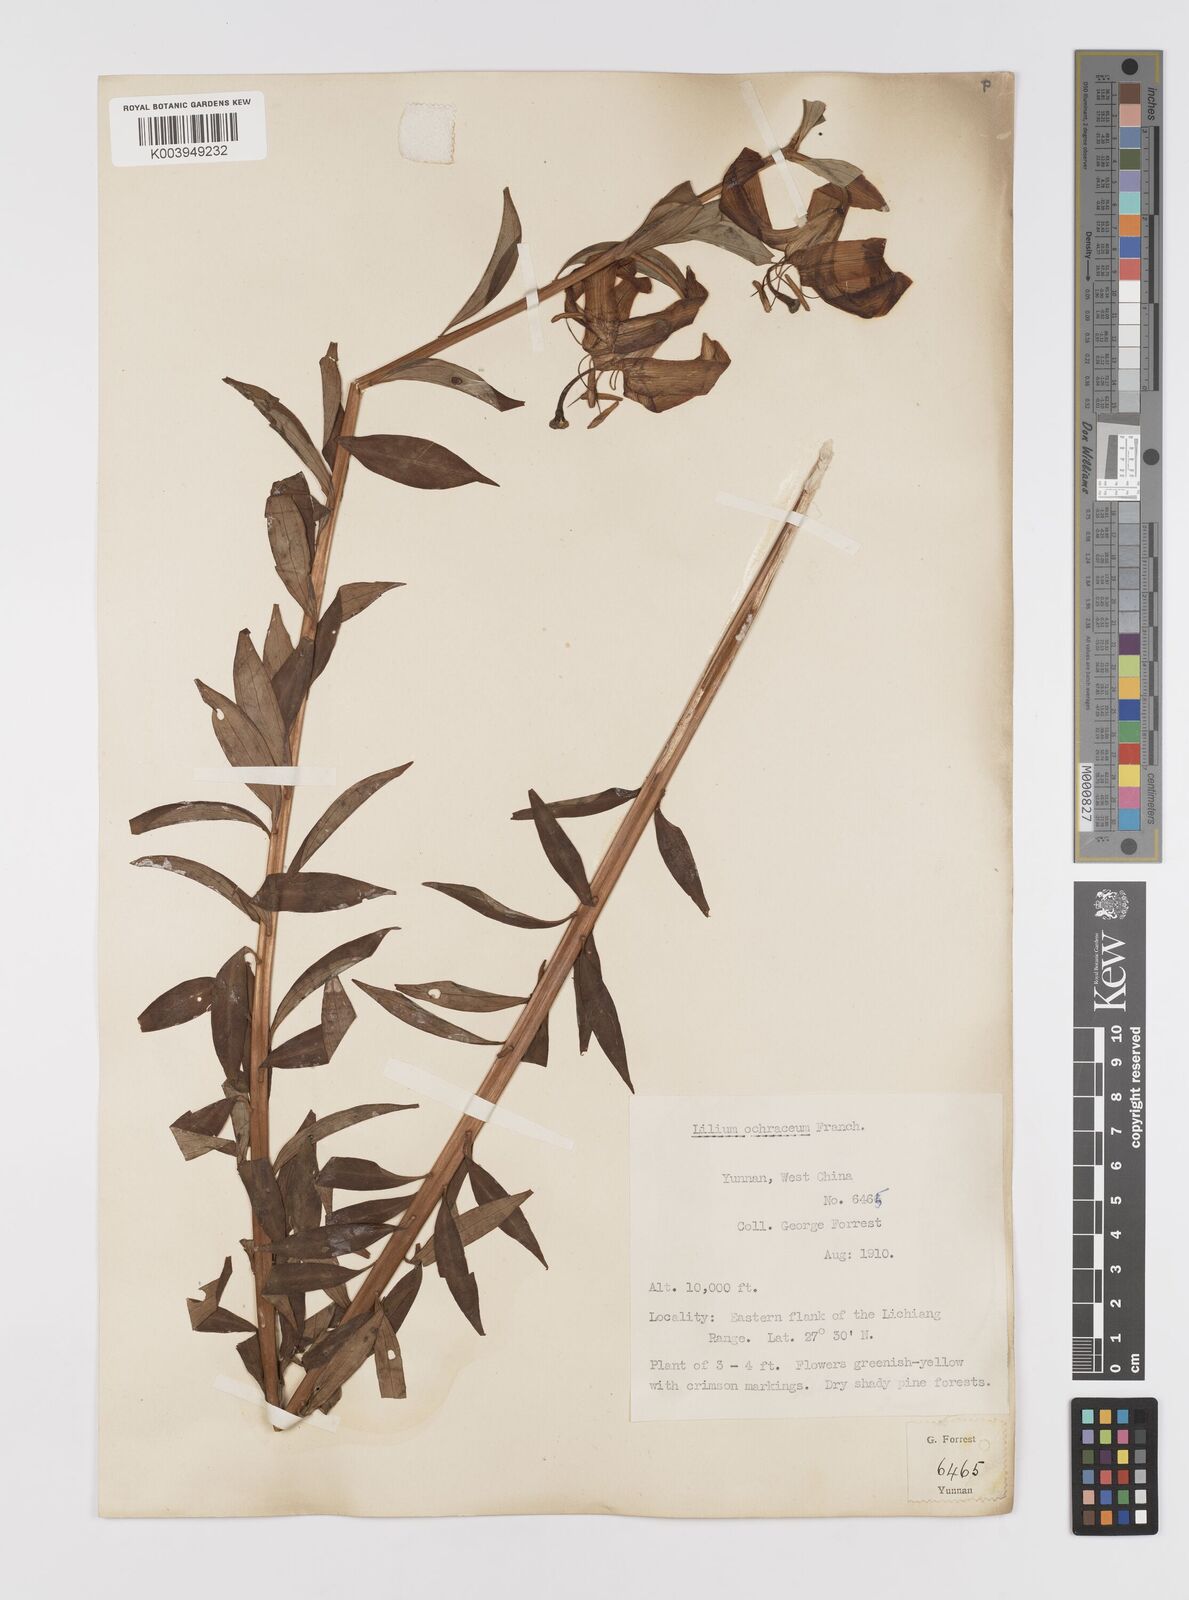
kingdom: Plantae
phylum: Tracheophyta
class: Liliopsida
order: Liliales
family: Liliaceae
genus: Lilium
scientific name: Lilium primulinum
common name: Ochre lily
